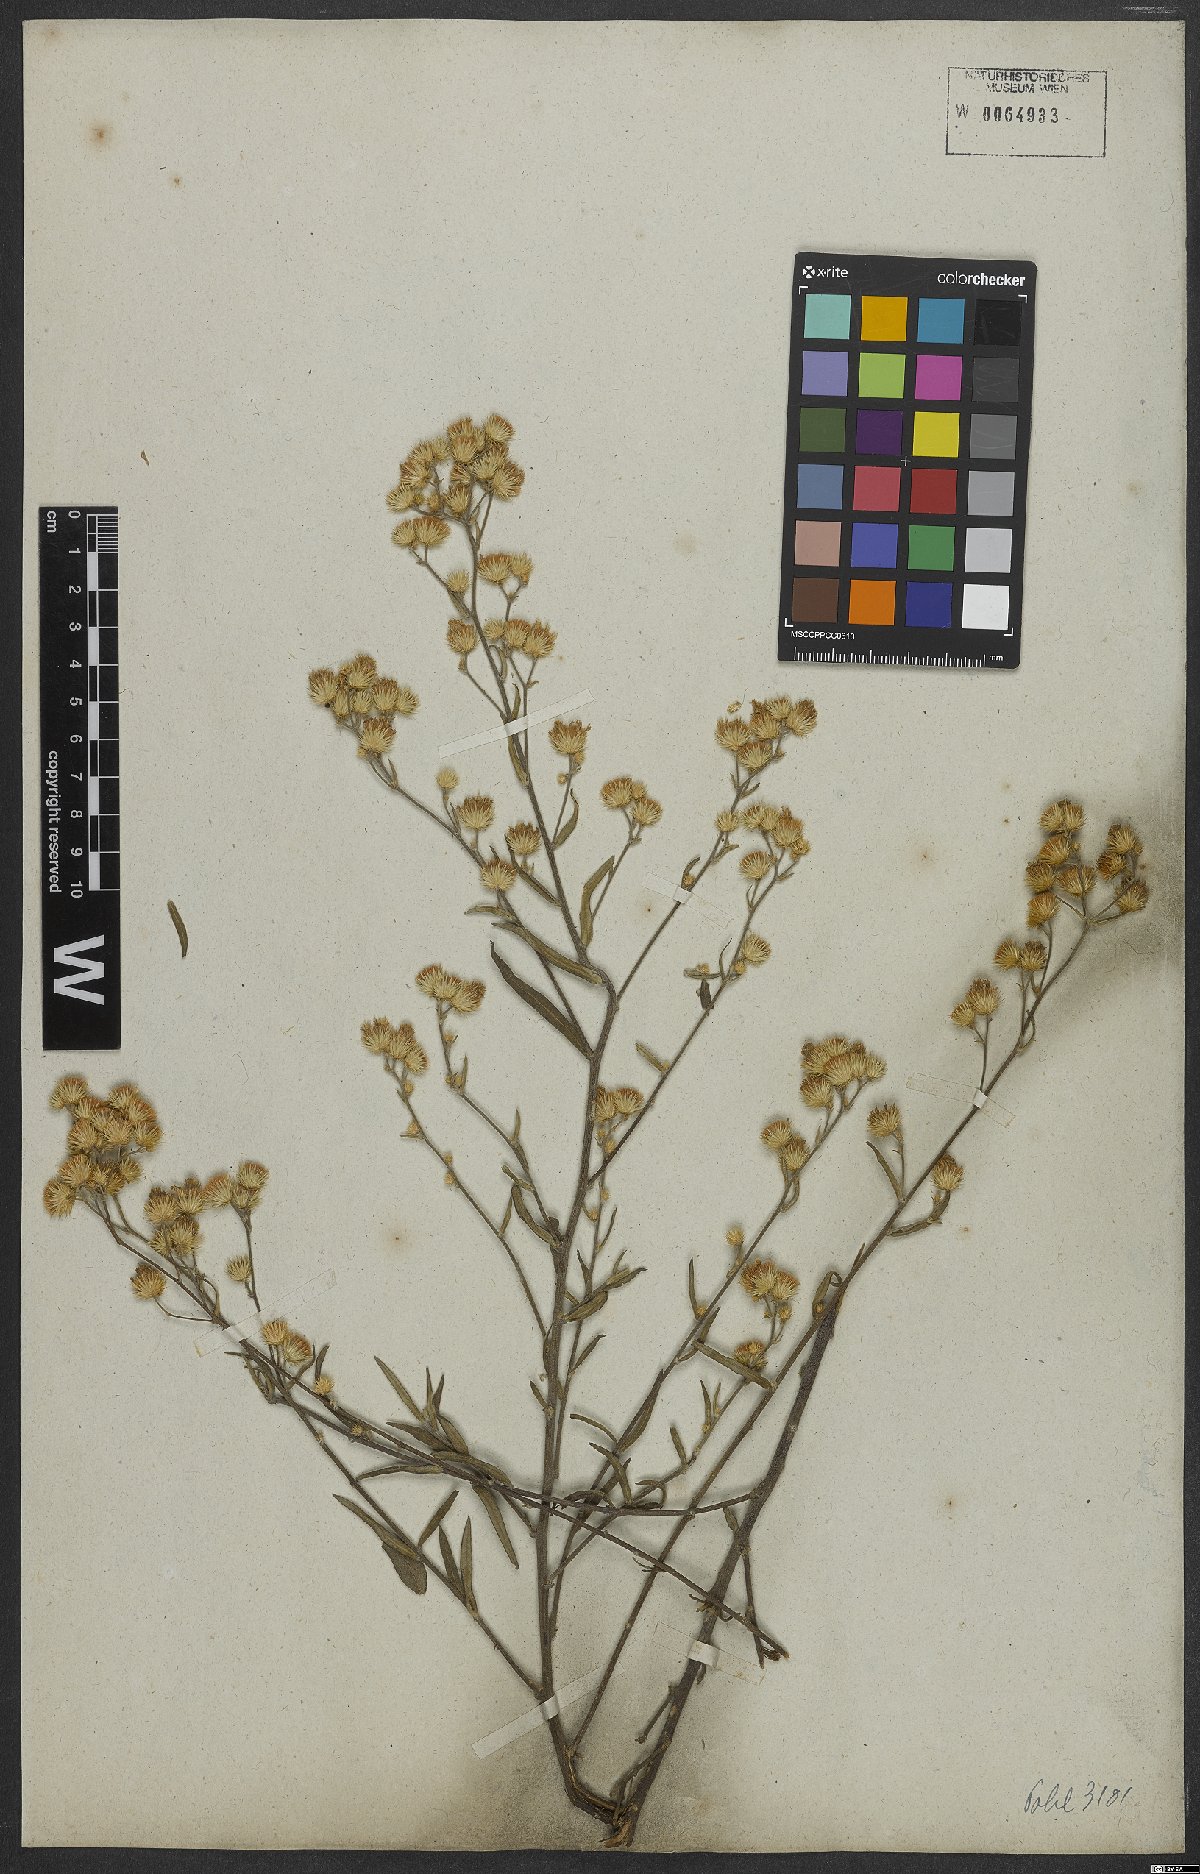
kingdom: Plantae
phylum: Tracheophyta
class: Magnoliopsida
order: Asterales
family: Asteraceae
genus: Echinocoryne
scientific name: Echinocoryne stricta
